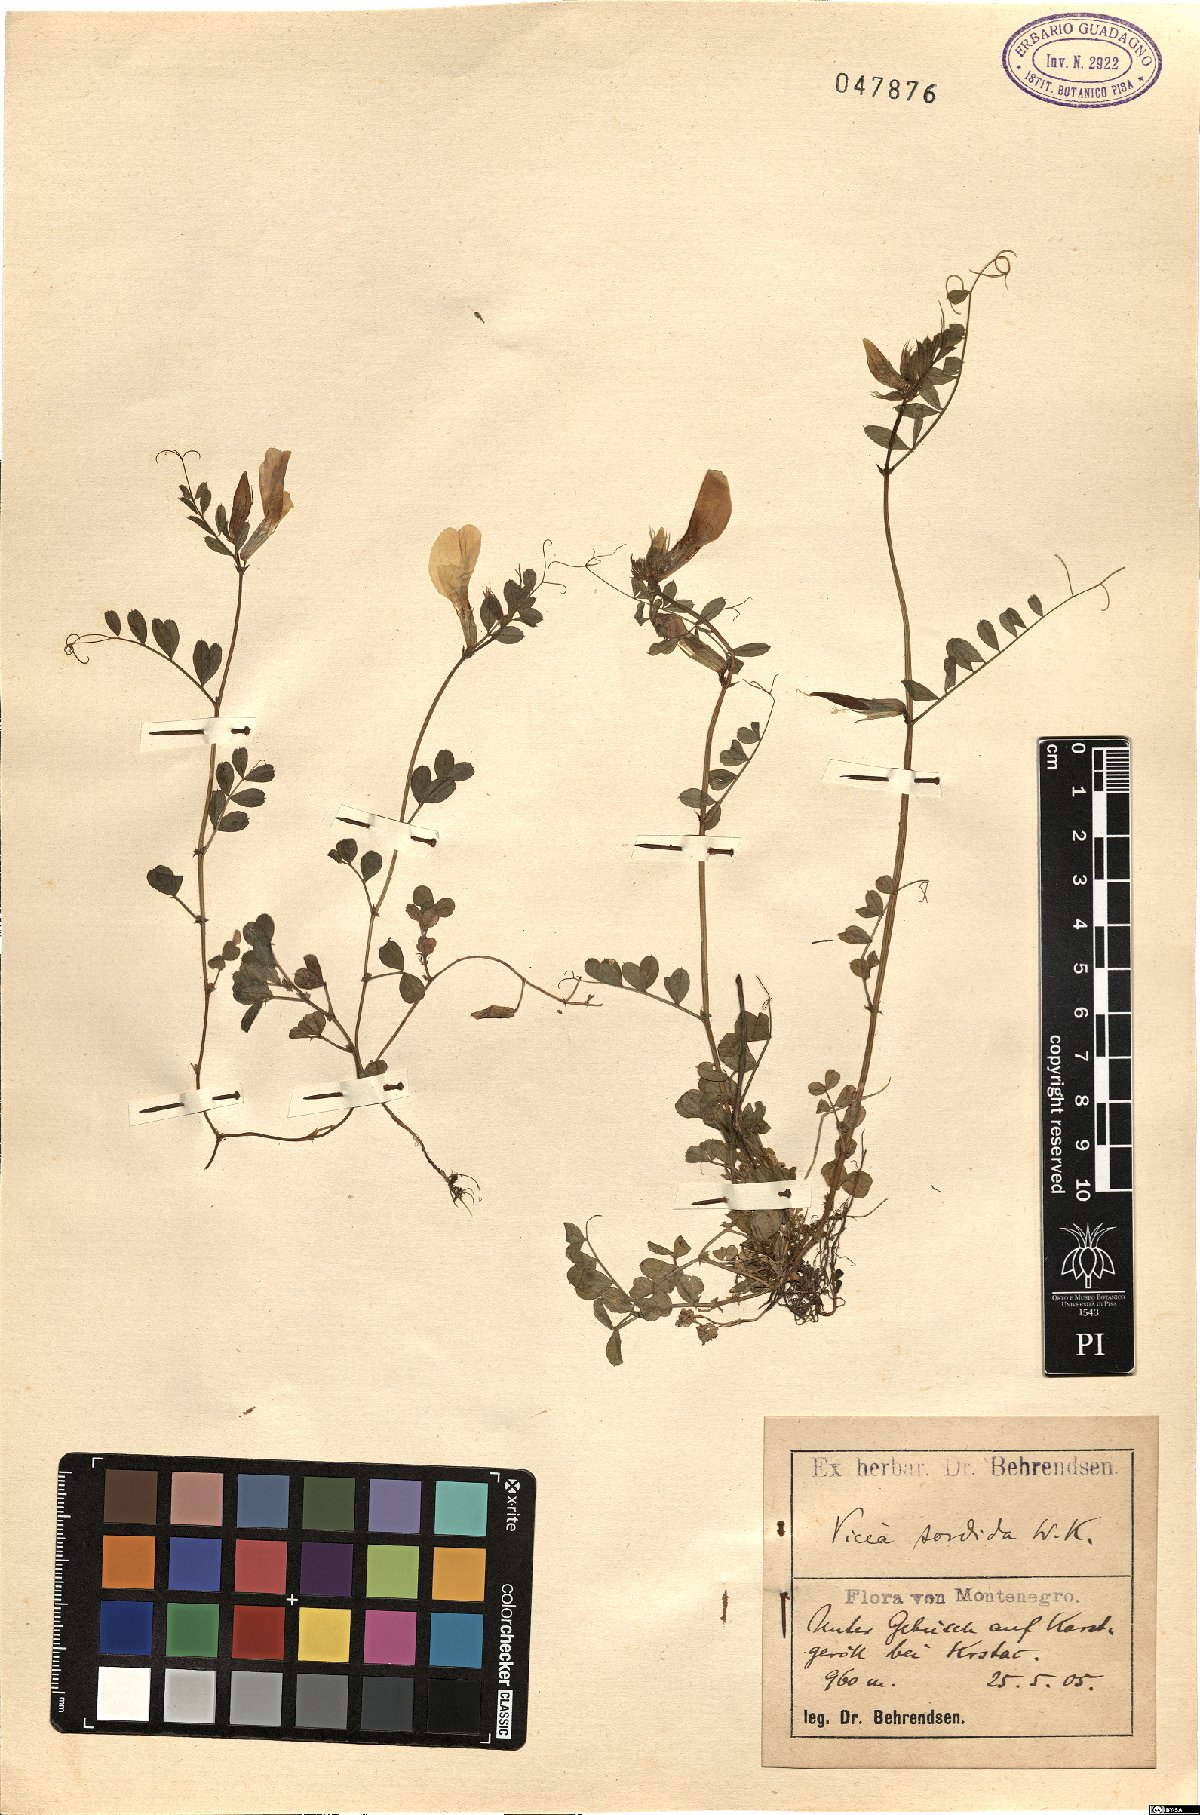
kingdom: Plantae
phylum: Tracheophyta
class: Magnoliopsida
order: Fabales
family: Fabaceae
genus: Vicia
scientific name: Vicia grandiflora
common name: Large yellow vetch
